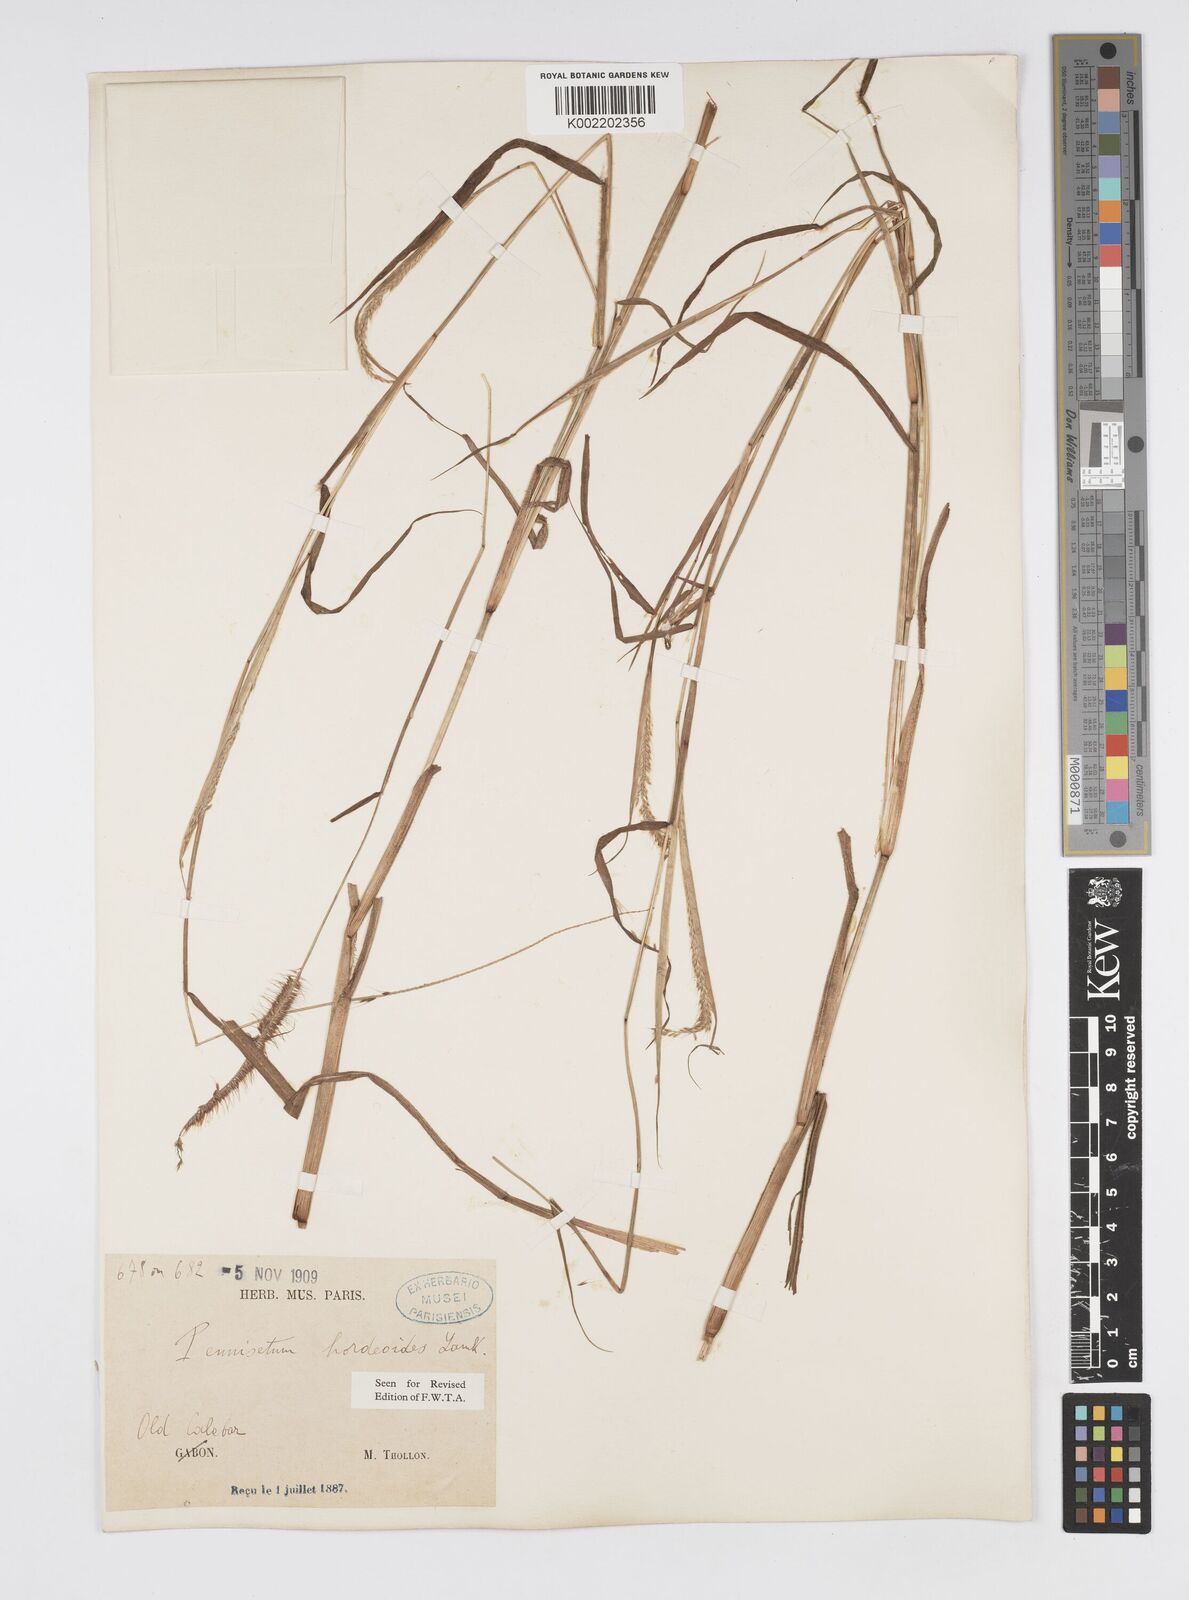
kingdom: Plantae
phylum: Tracheophyta
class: Liliopsida
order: Poales
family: Poaceae
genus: Cenchrus
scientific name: Cenchrus hordeoides
